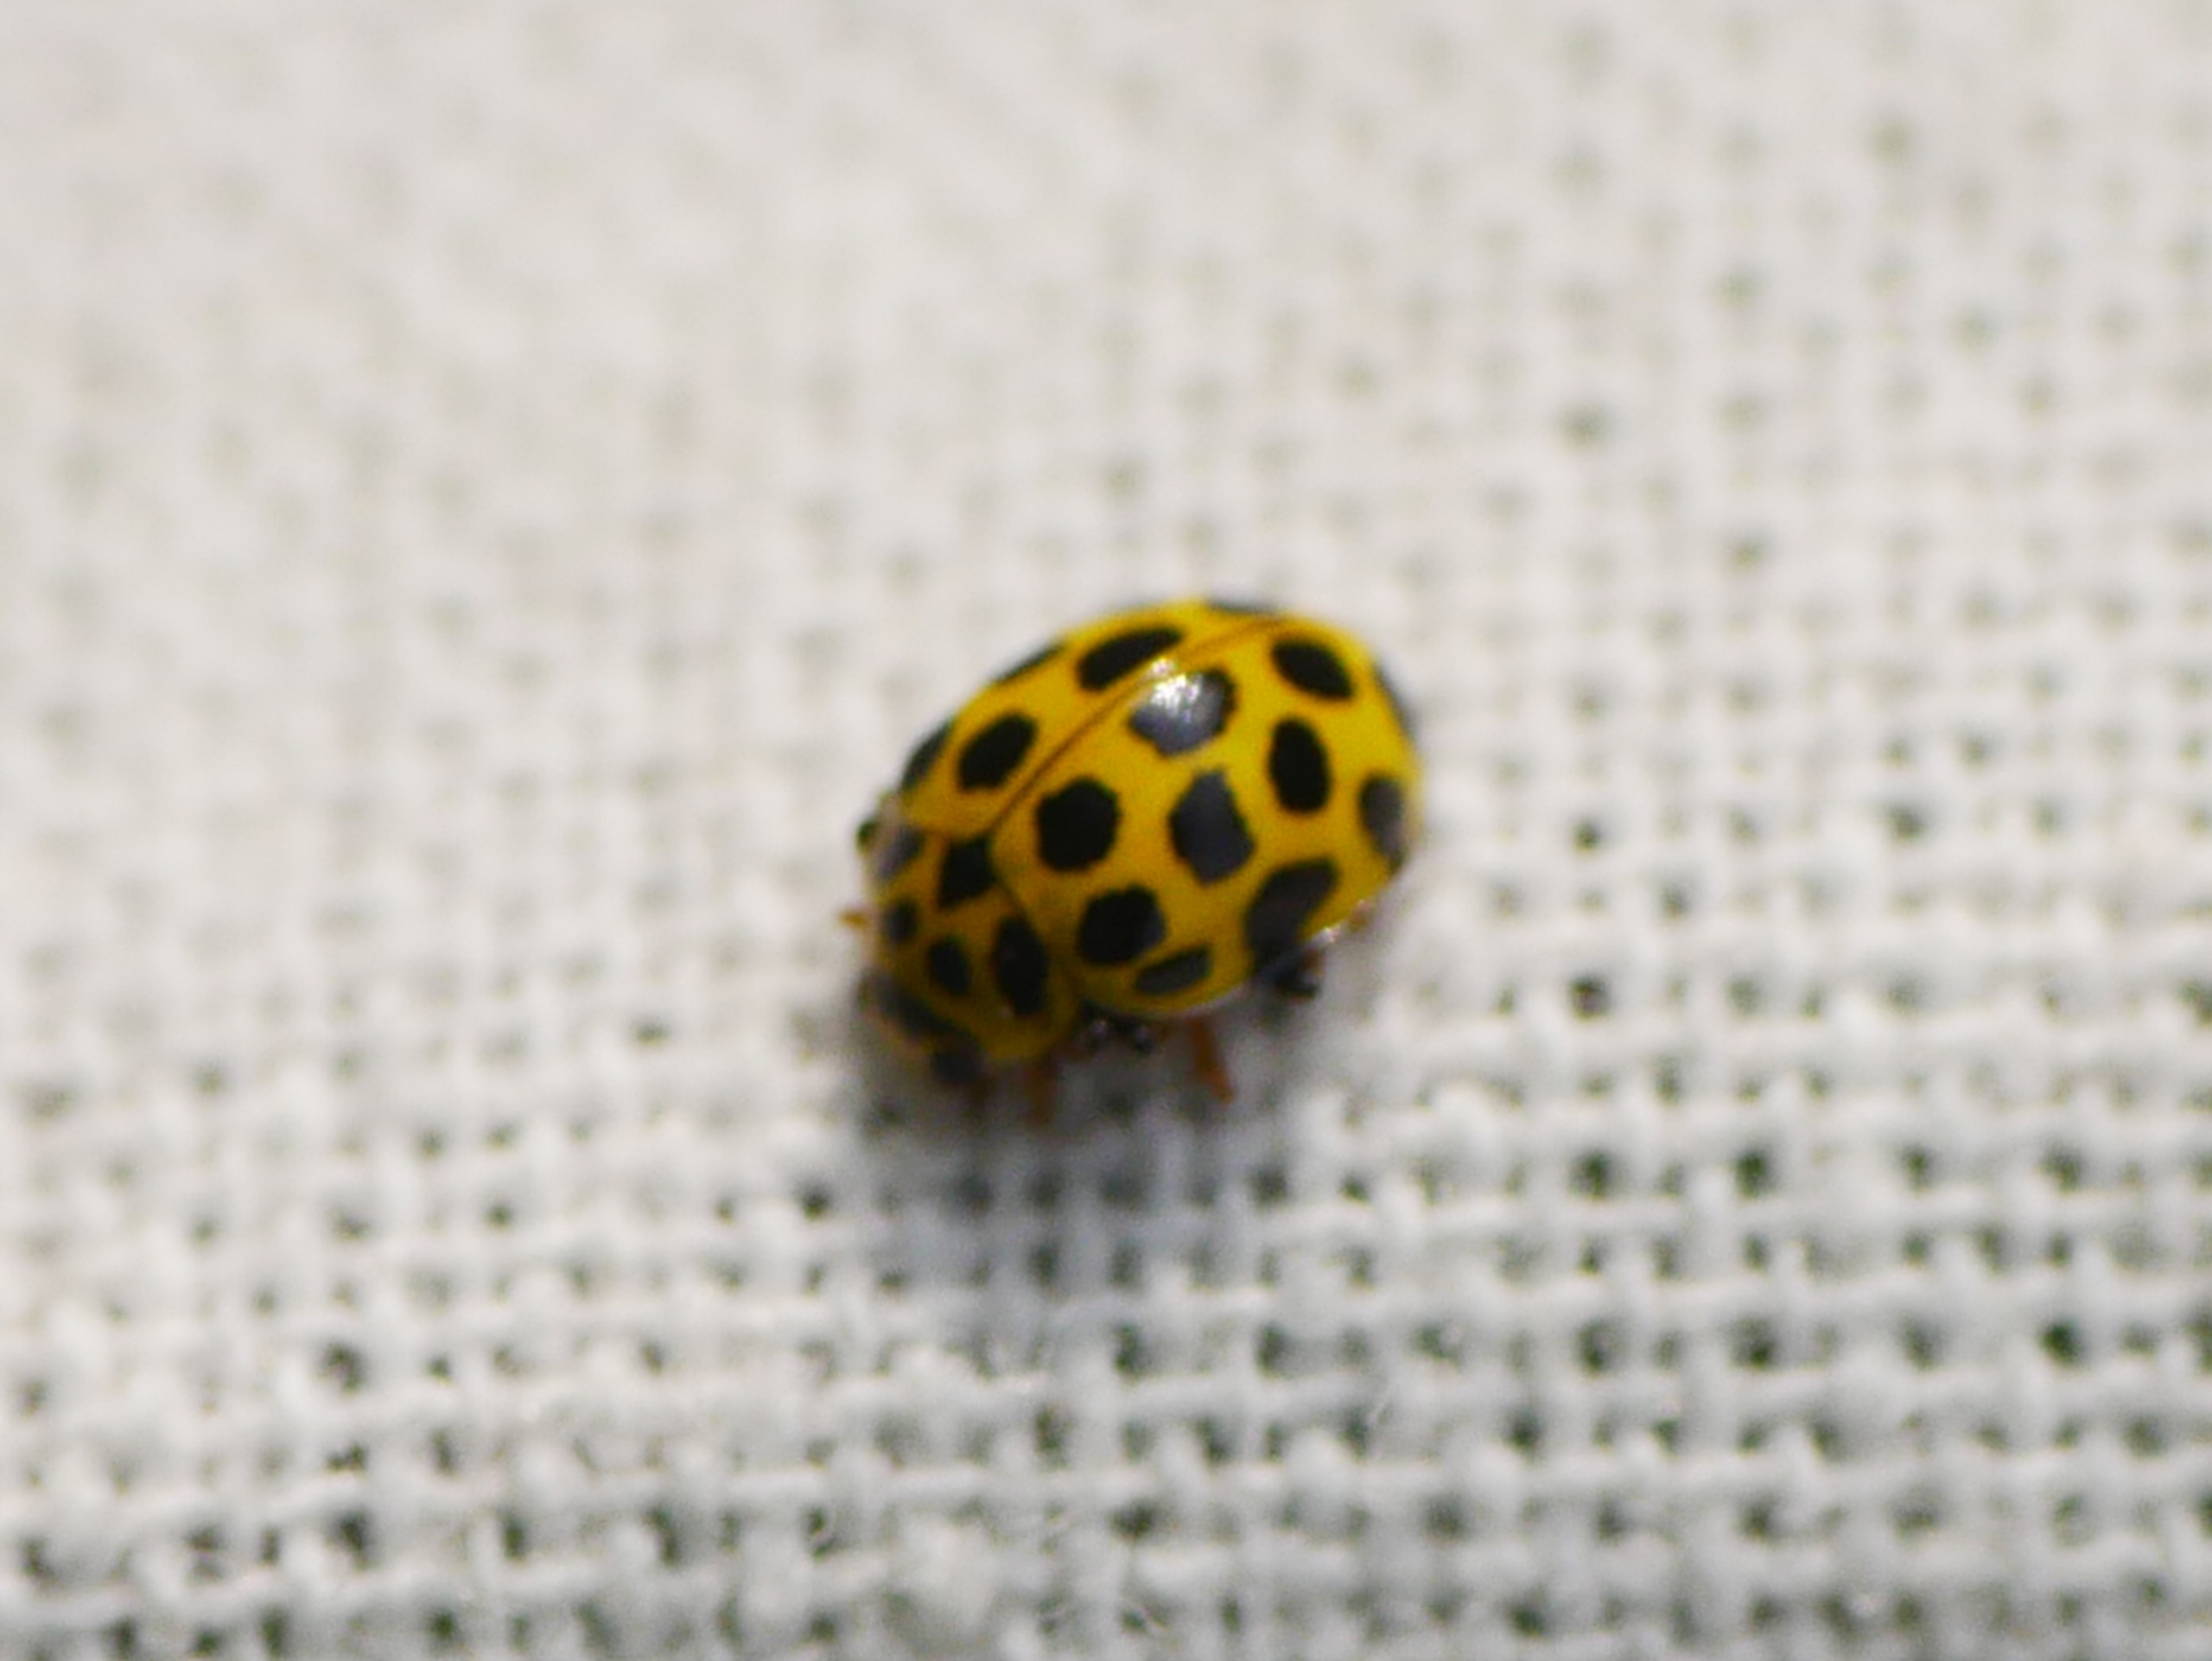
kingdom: Animalia
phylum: Arthropoda
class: Insecta
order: Coleoptera
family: Coccinellidae
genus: Psyllobora
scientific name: Psyllobora vigintiduopunctata
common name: Toogtyveplettet mariehøne
